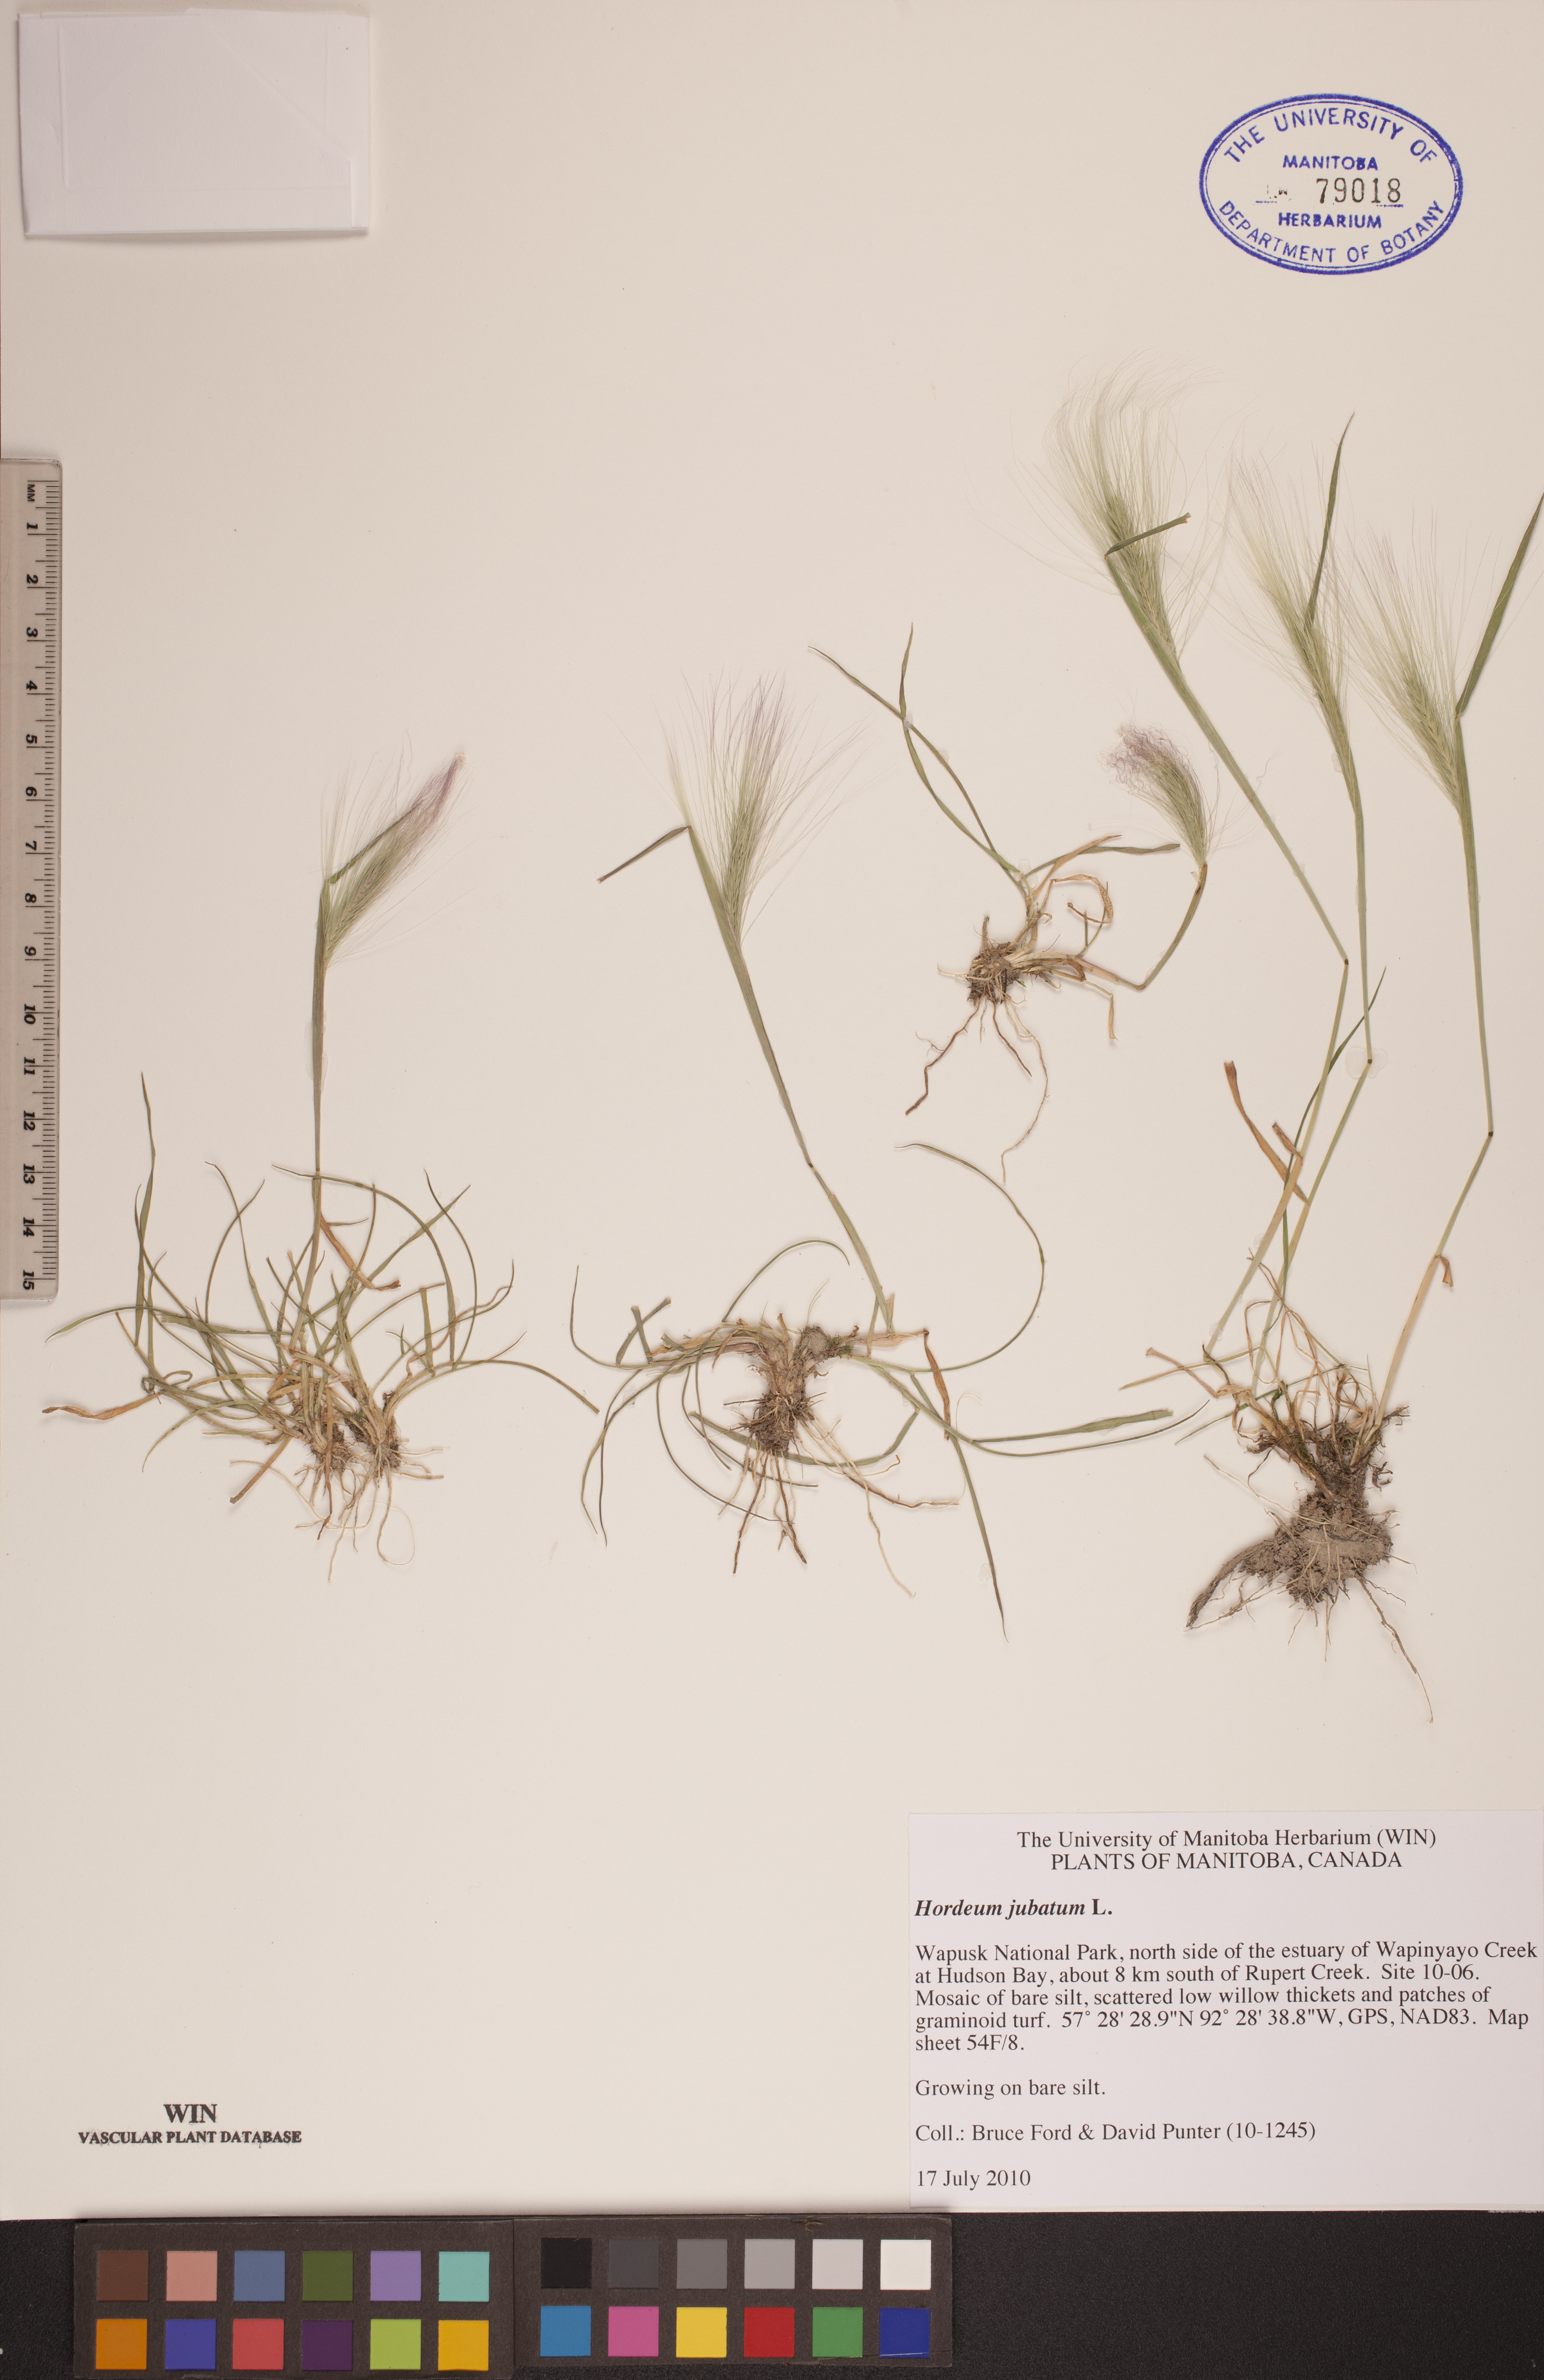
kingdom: Plantae
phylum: Tracheophyta
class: Liliopsida
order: Poales
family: Poaceae
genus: Hordeum
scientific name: Hordeum jubatum
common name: Foxtail barley
